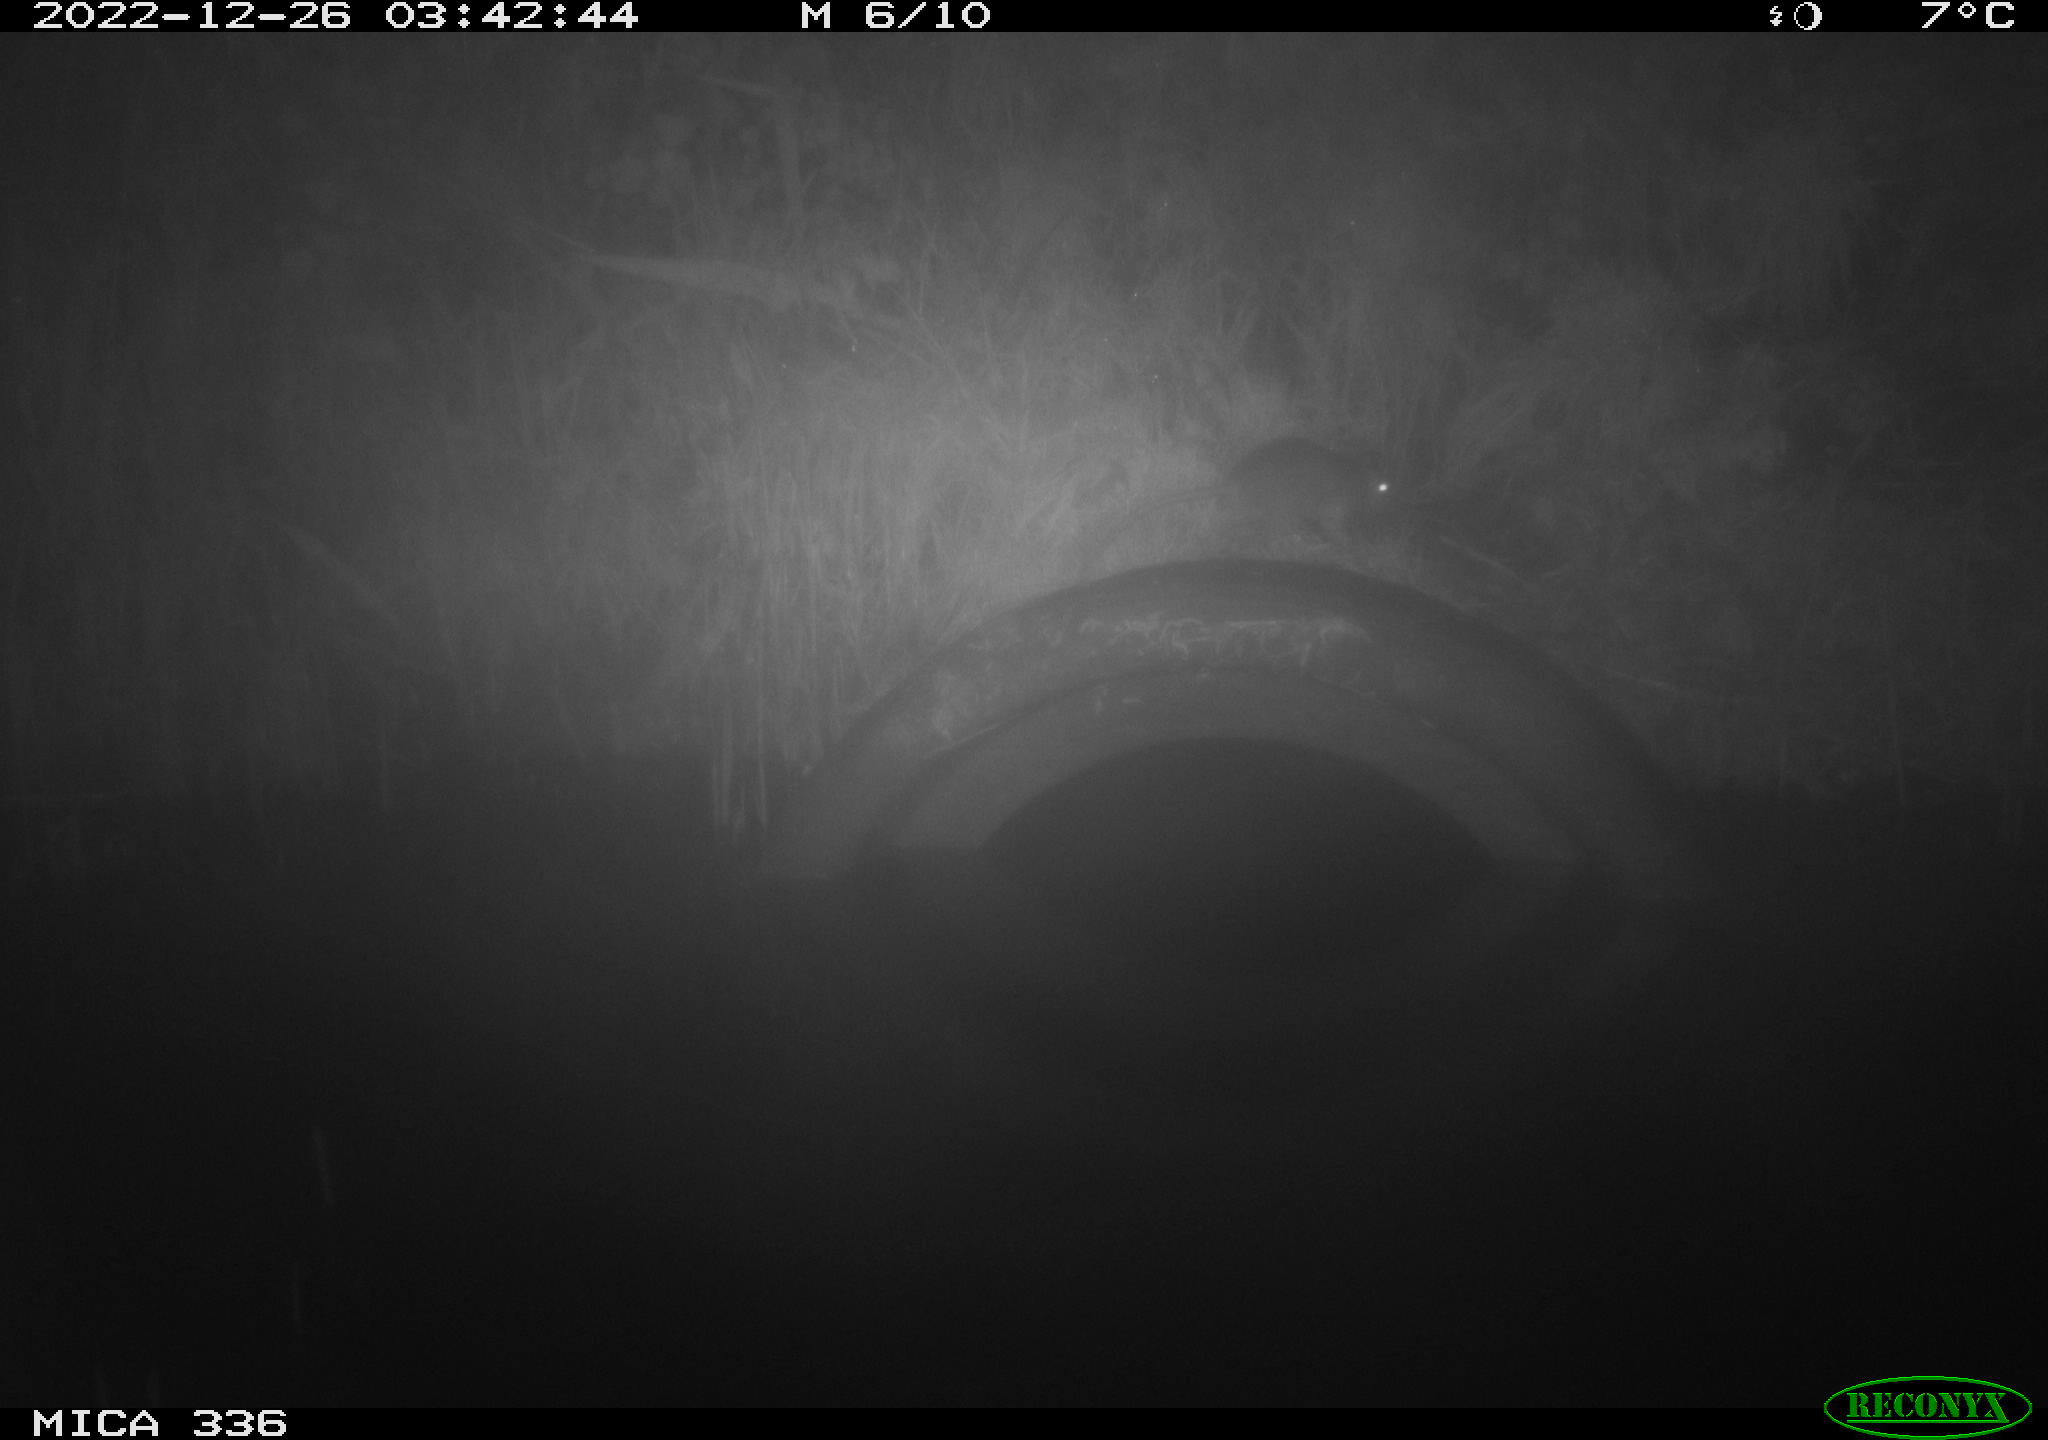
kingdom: Animalia
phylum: Chordata
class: Mammalia
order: Rodentia
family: Muridae
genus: Rattus
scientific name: Rattus norvegicus
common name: Brown rat
